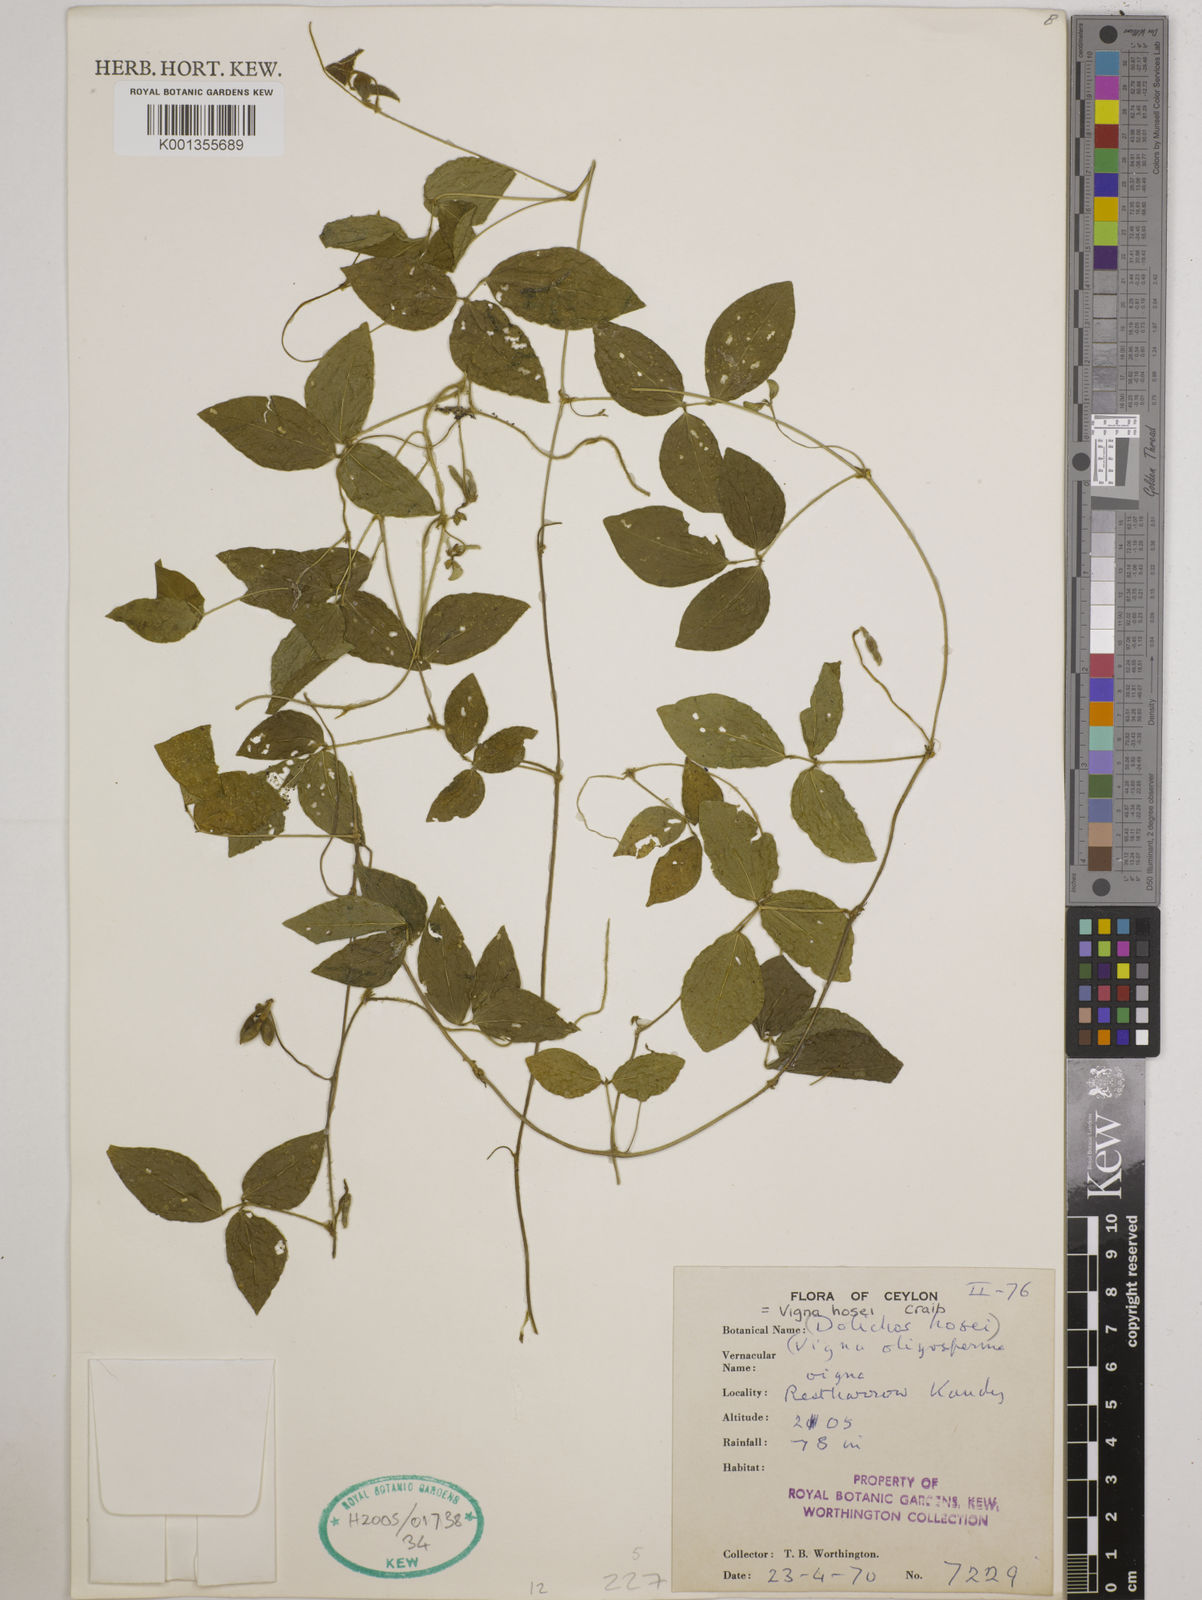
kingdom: Plantae
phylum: Tracheophyta
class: Magnoliopsida
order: Fabales
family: Fabaceae
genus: Vigna
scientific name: Vigna hosei
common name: Sarawak-bean
